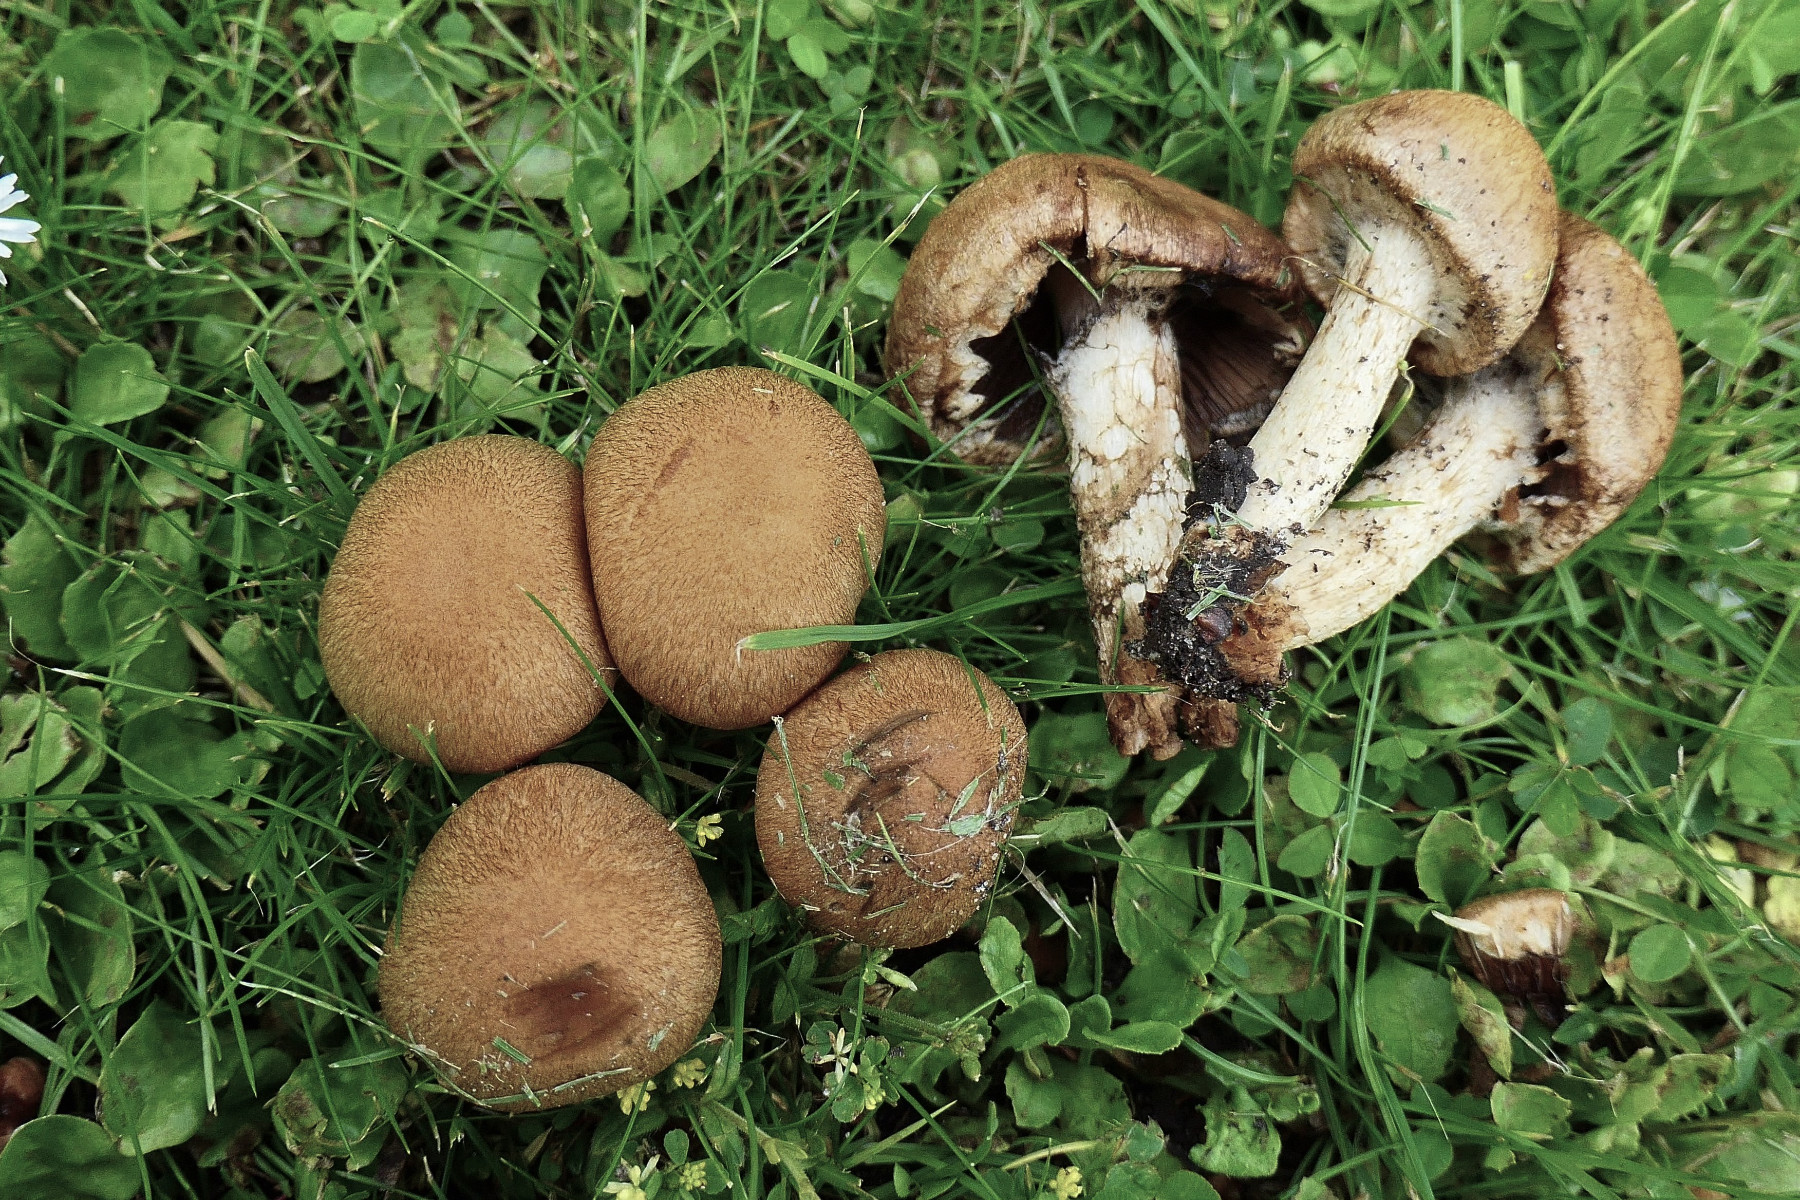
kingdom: Fungi
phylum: Basidiomycota
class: Agaricomycetes
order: Agaricales
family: Psathyrellaceae
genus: Lacrymaria
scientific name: Lacrymaria lacrymabunda
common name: grædende mørkhat
